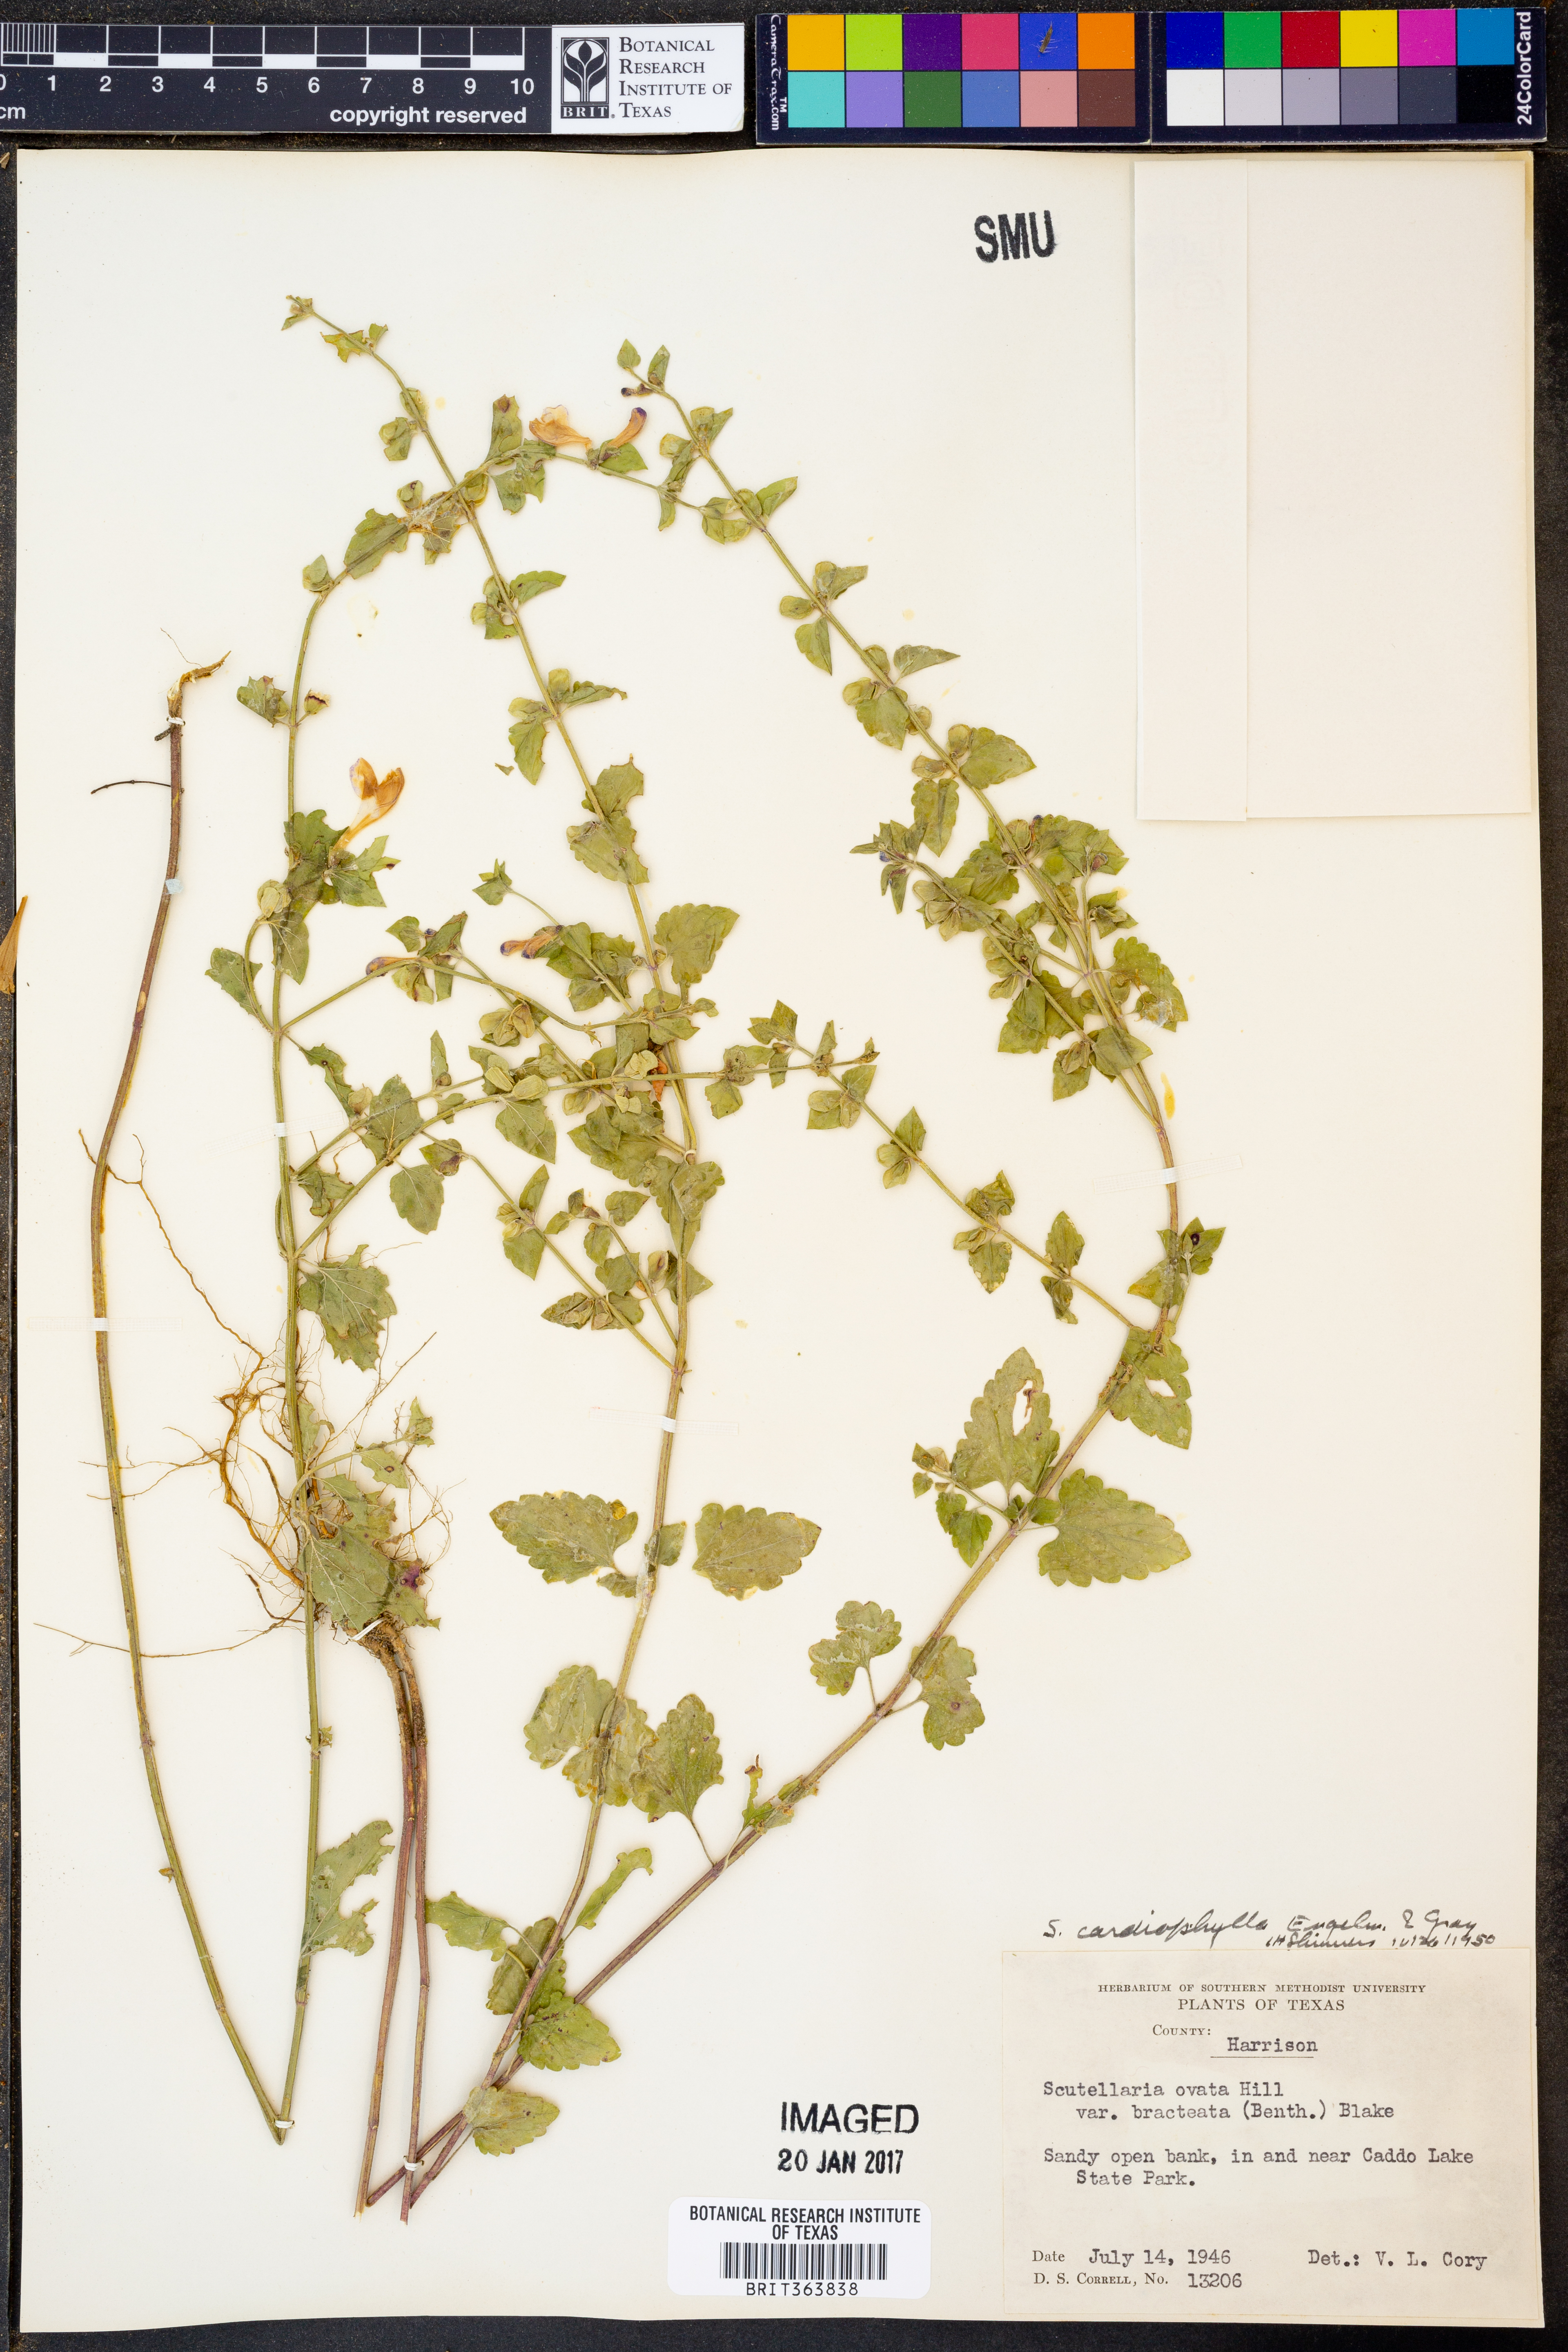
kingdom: Plantae
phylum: Tracheophyta
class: Magnoliopsida
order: Lamiales
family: Lamiaceae
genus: Scutellaria
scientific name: Scutellaria cardiophylla
